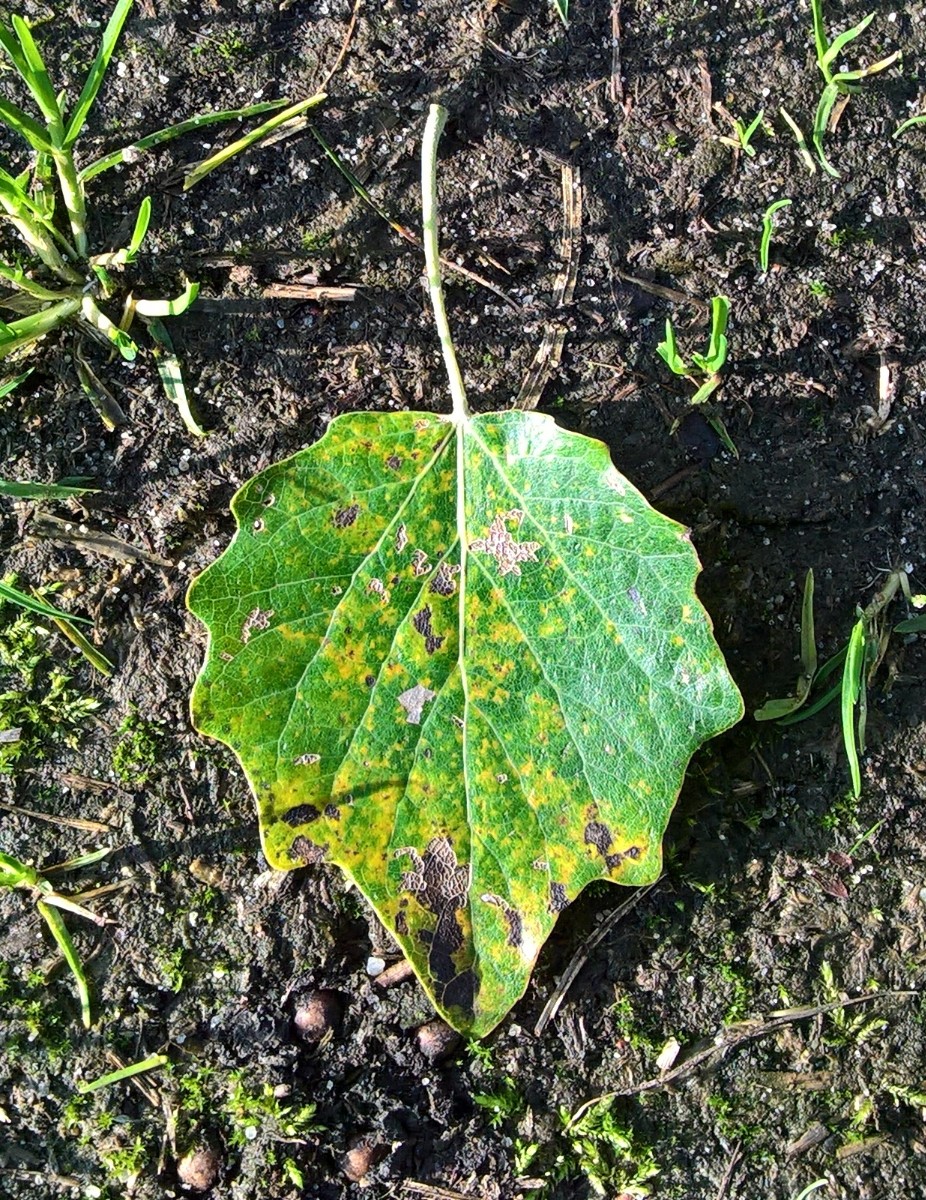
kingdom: Fungi
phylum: Basidiomycota
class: Agaricomycetes
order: Hymenochaetales
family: Hymenochaetaceae
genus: Phellinus
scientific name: Phellinus populicola
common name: poppel-ildporesvamp
